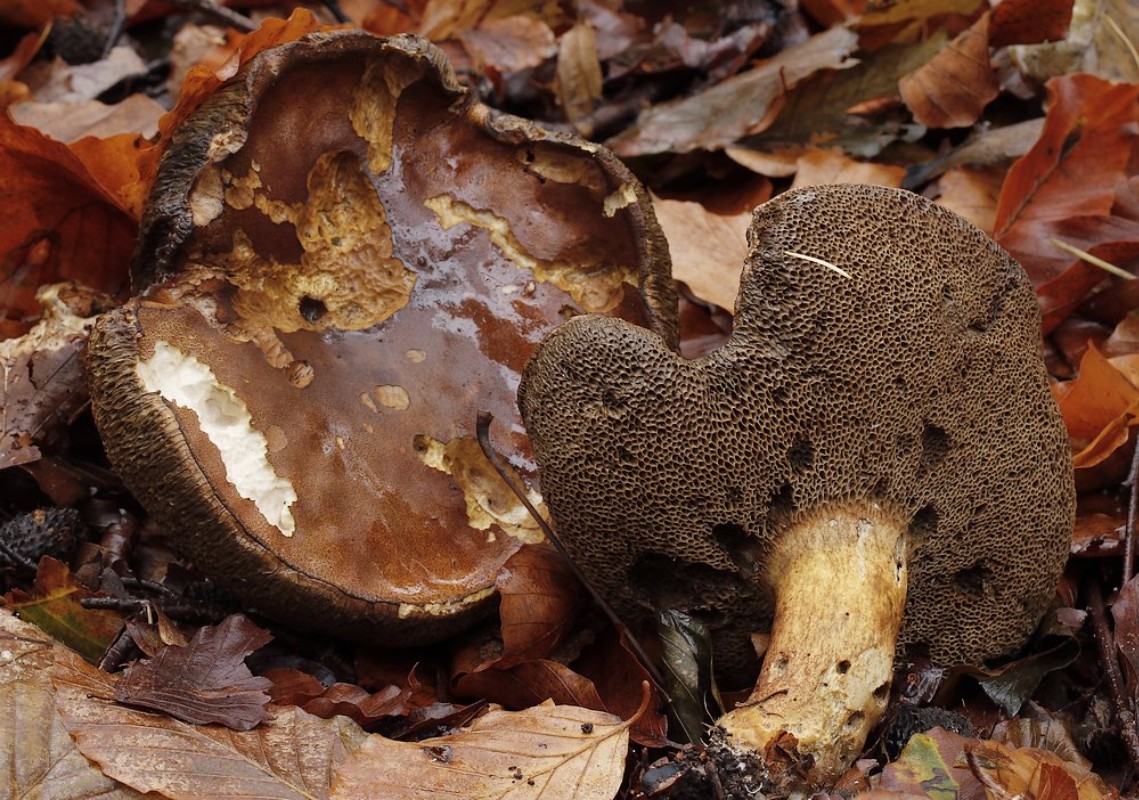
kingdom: Fungi
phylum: Basidiomycota
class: Agaricomycetes
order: Boletales
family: Boletaceae
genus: Imleria
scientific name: Imleria badia
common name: brunstokket rørhat
